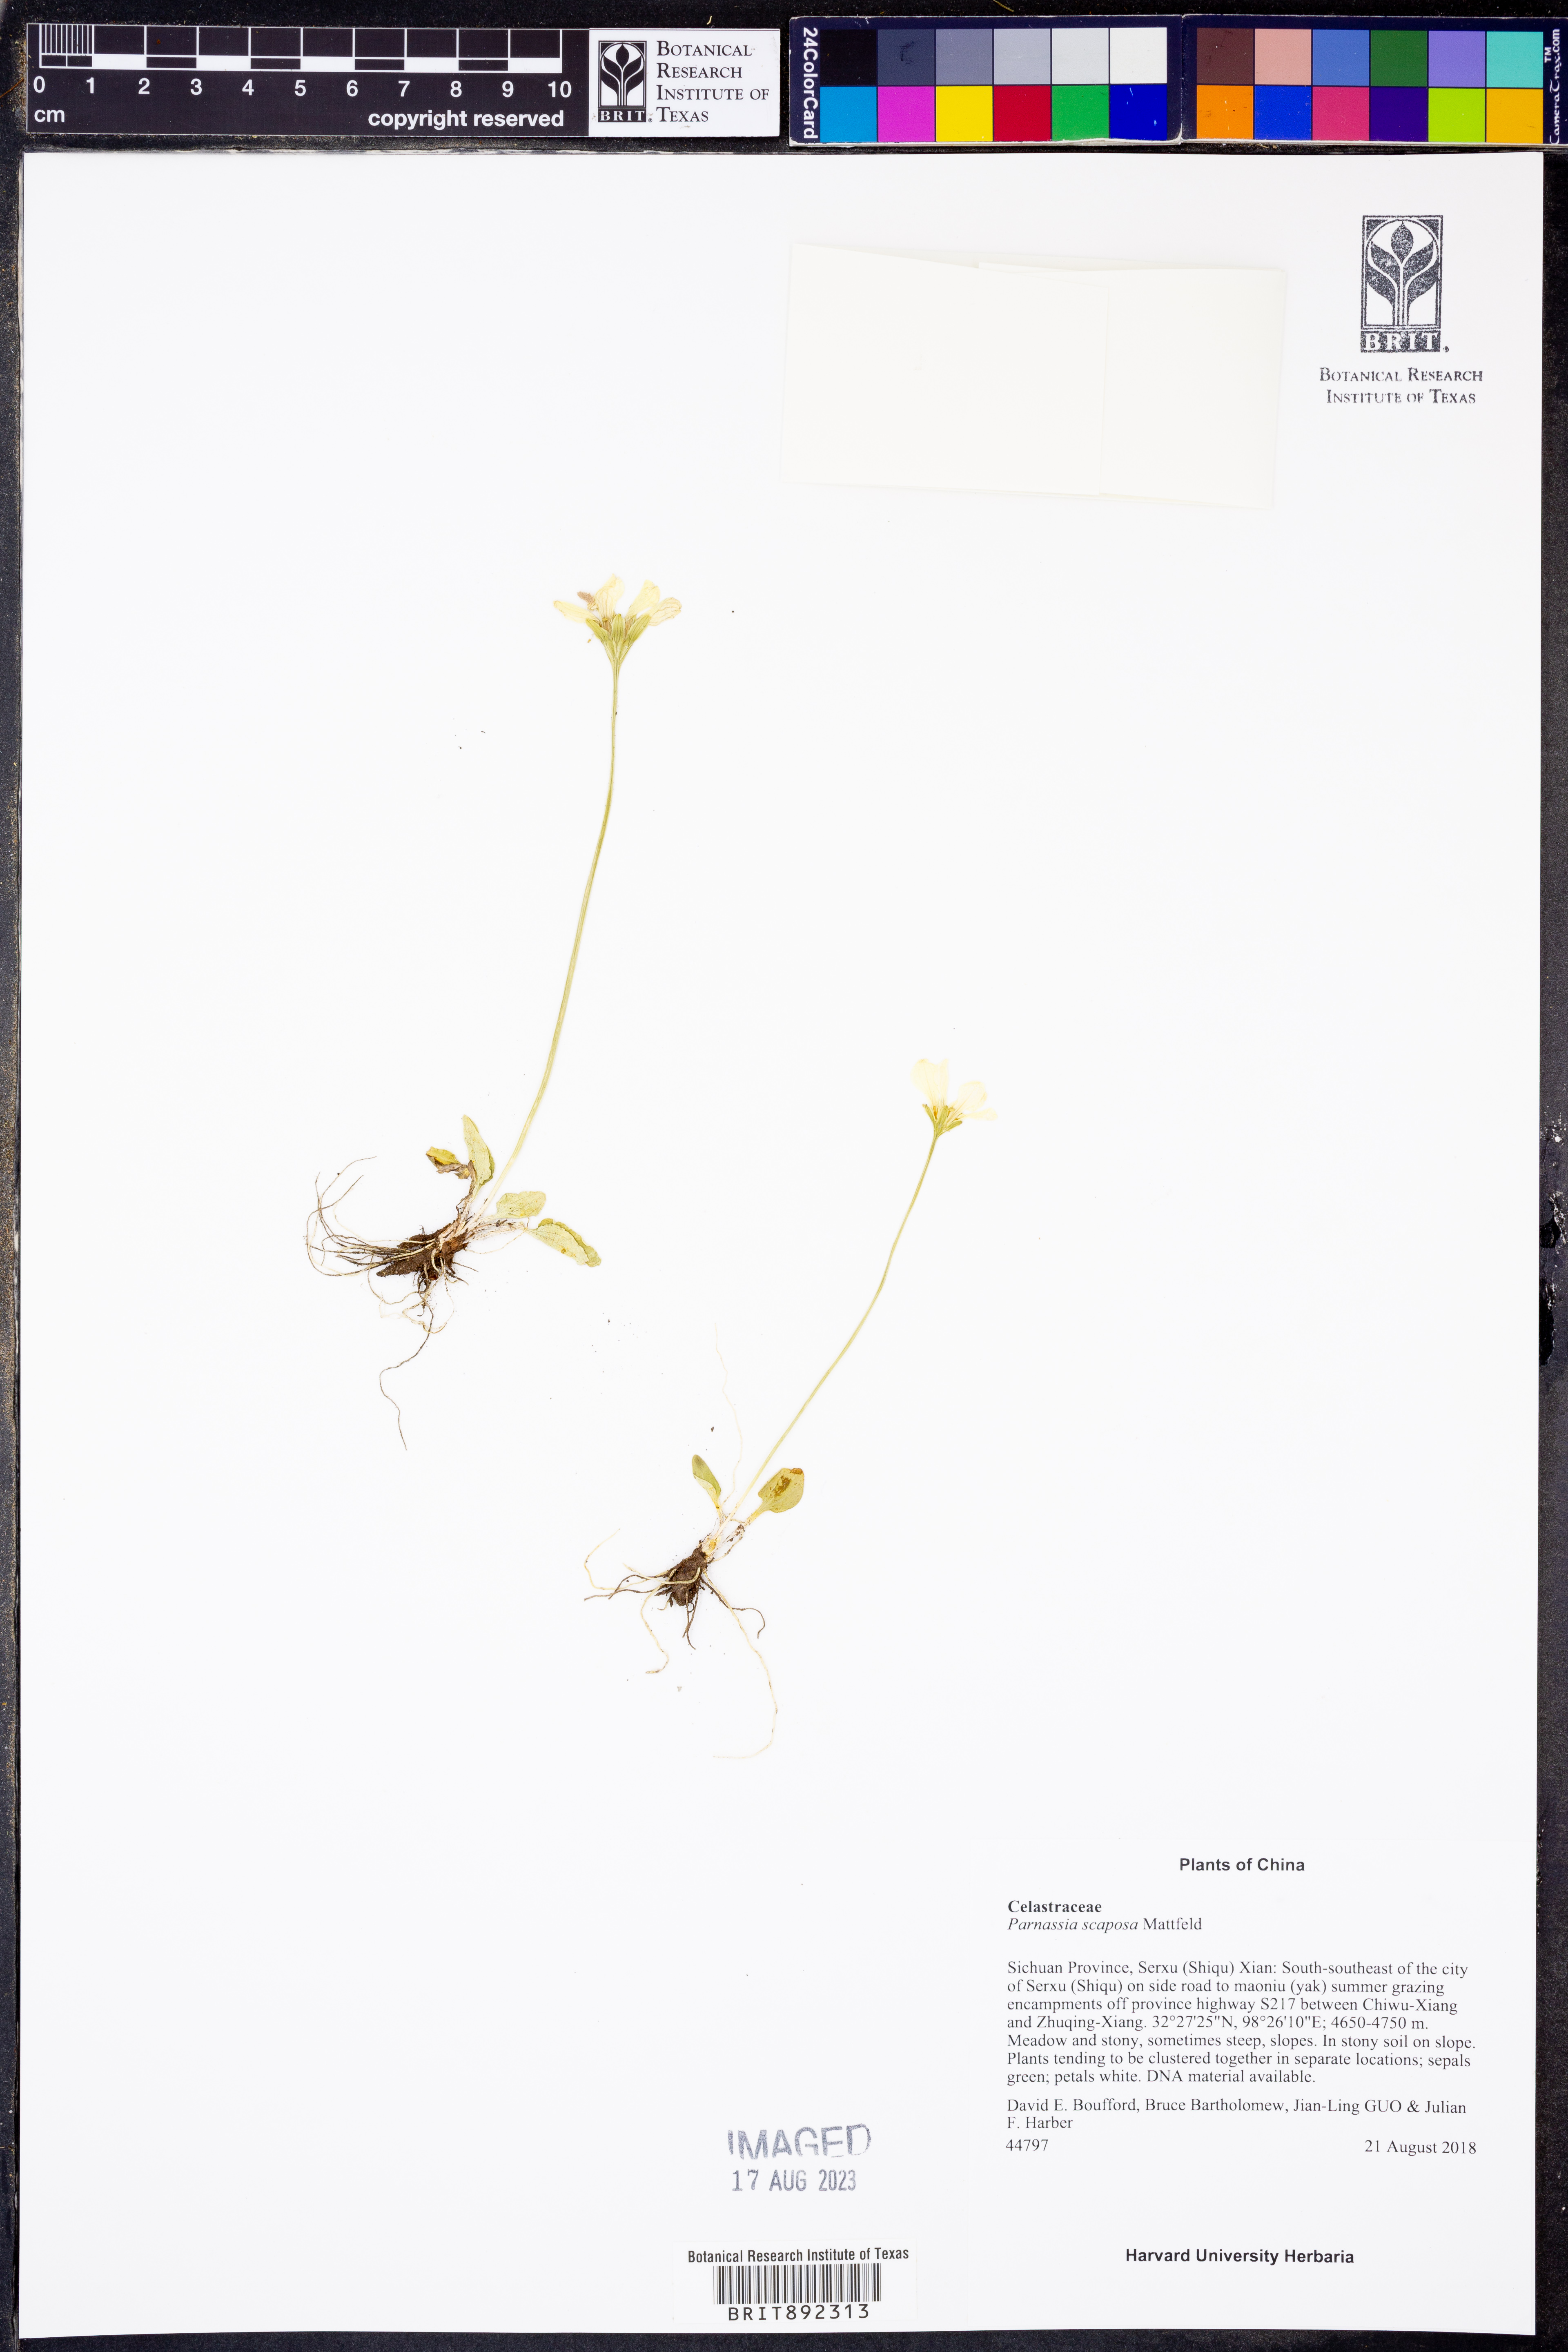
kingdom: Plantae
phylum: Tracheophyta
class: Magnoliopsida
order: Celastrales
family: Parnassiaceae
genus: Parnassia
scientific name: Parnassia scaposa
